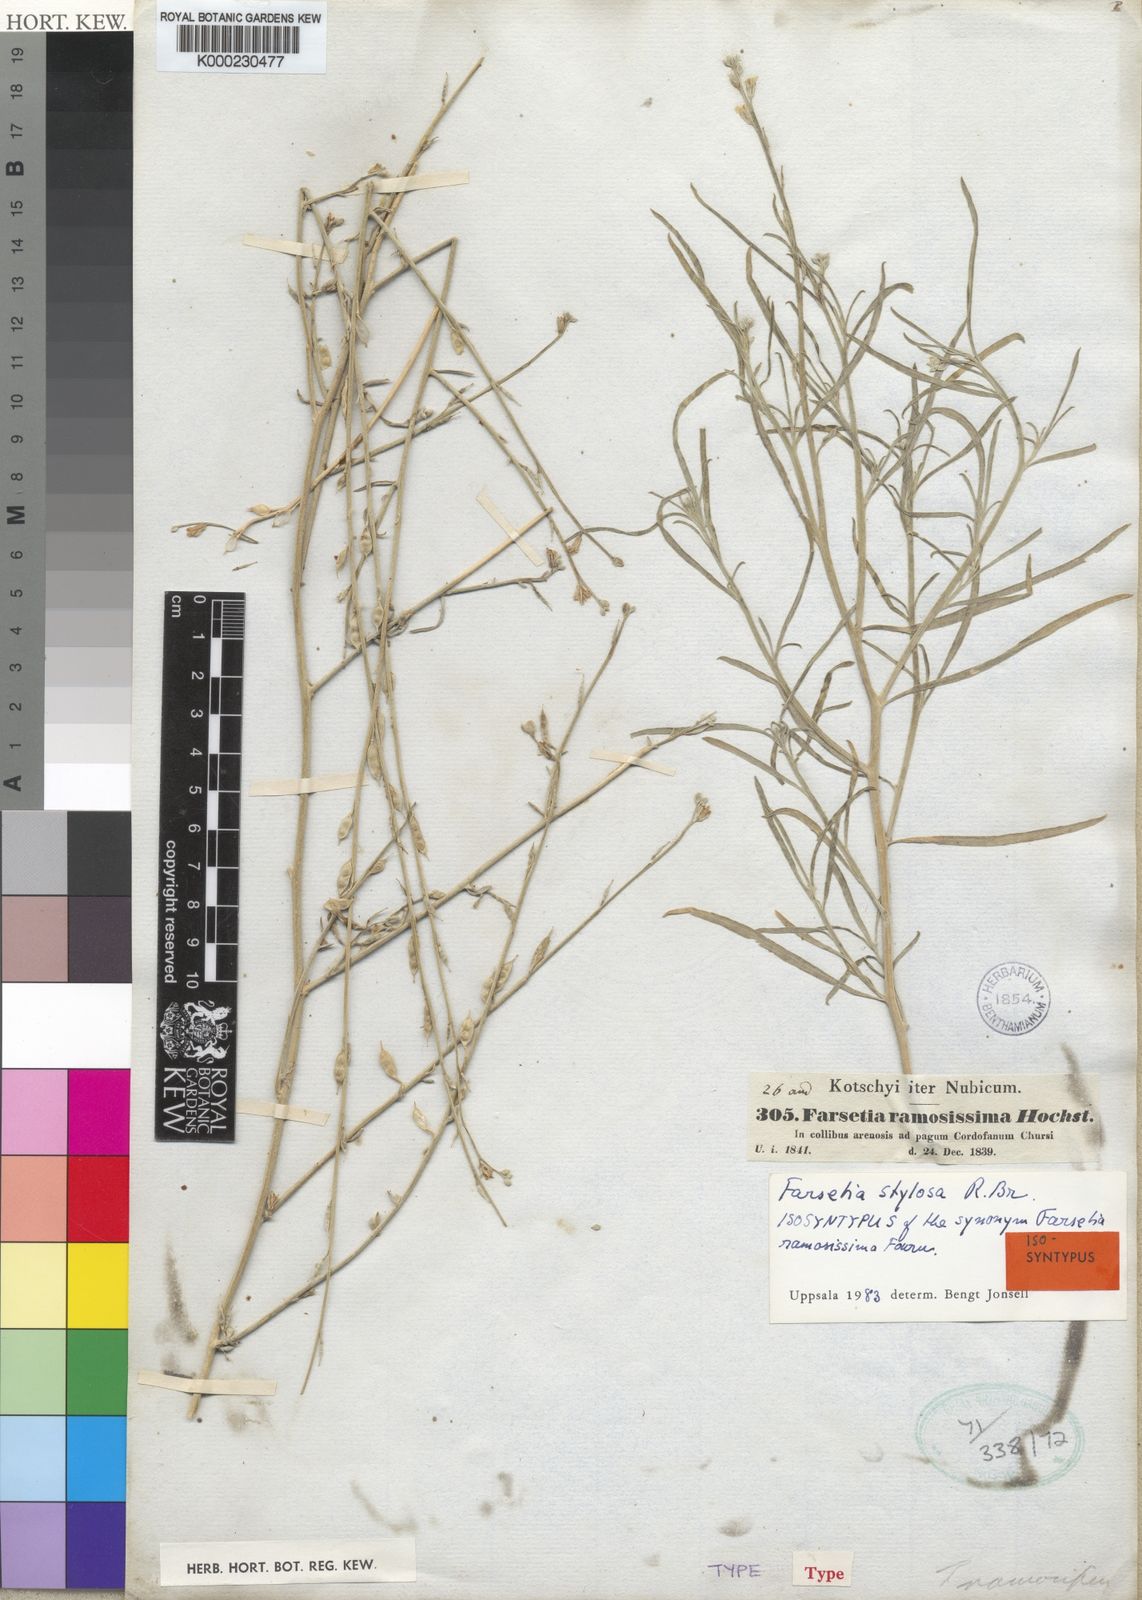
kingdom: Plantae
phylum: Tracheophyta
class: Magnoliopsida
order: Brassicales
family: Brassicaceae
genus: Farsetia
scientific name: Farsetia stylosa
